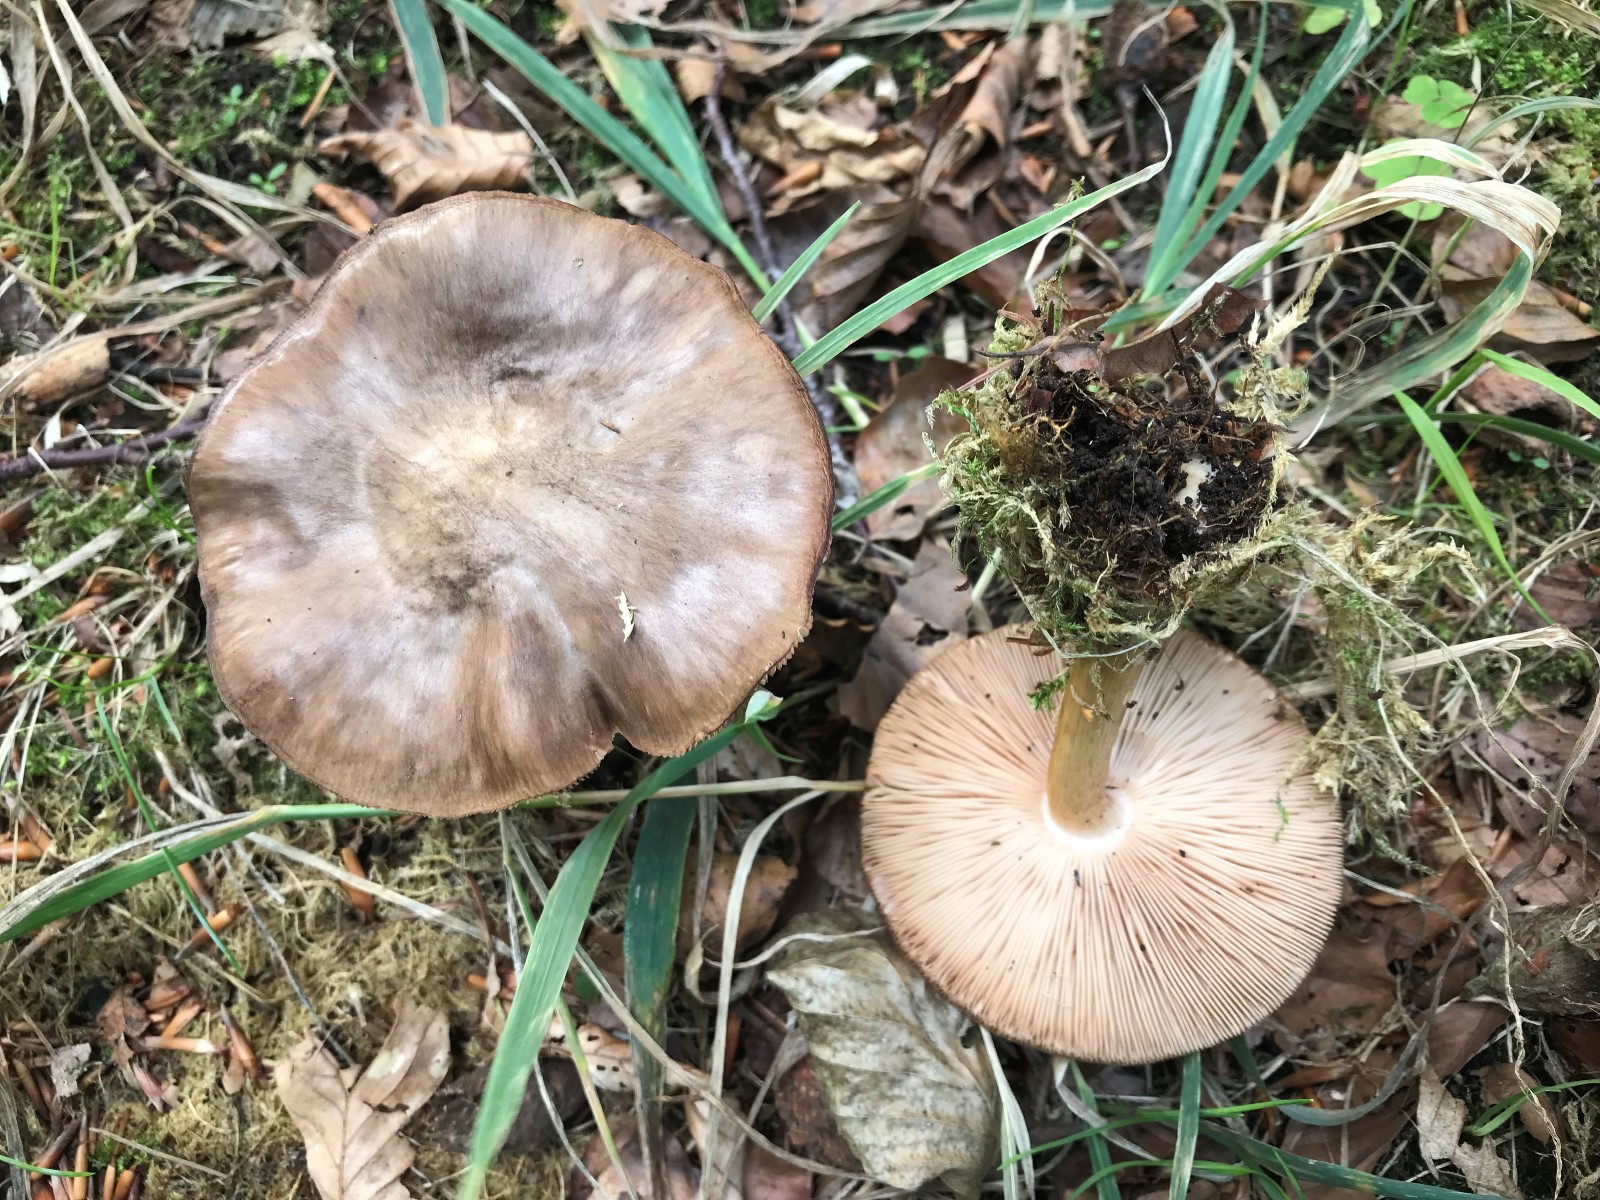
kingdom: Fungi
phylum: Basidiomycota
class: Agaricomycetes
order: Agaricales
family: Pluteaceae
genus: Pluteus
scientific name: Pluteus cervinus
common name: sodfarvet skærmhat
